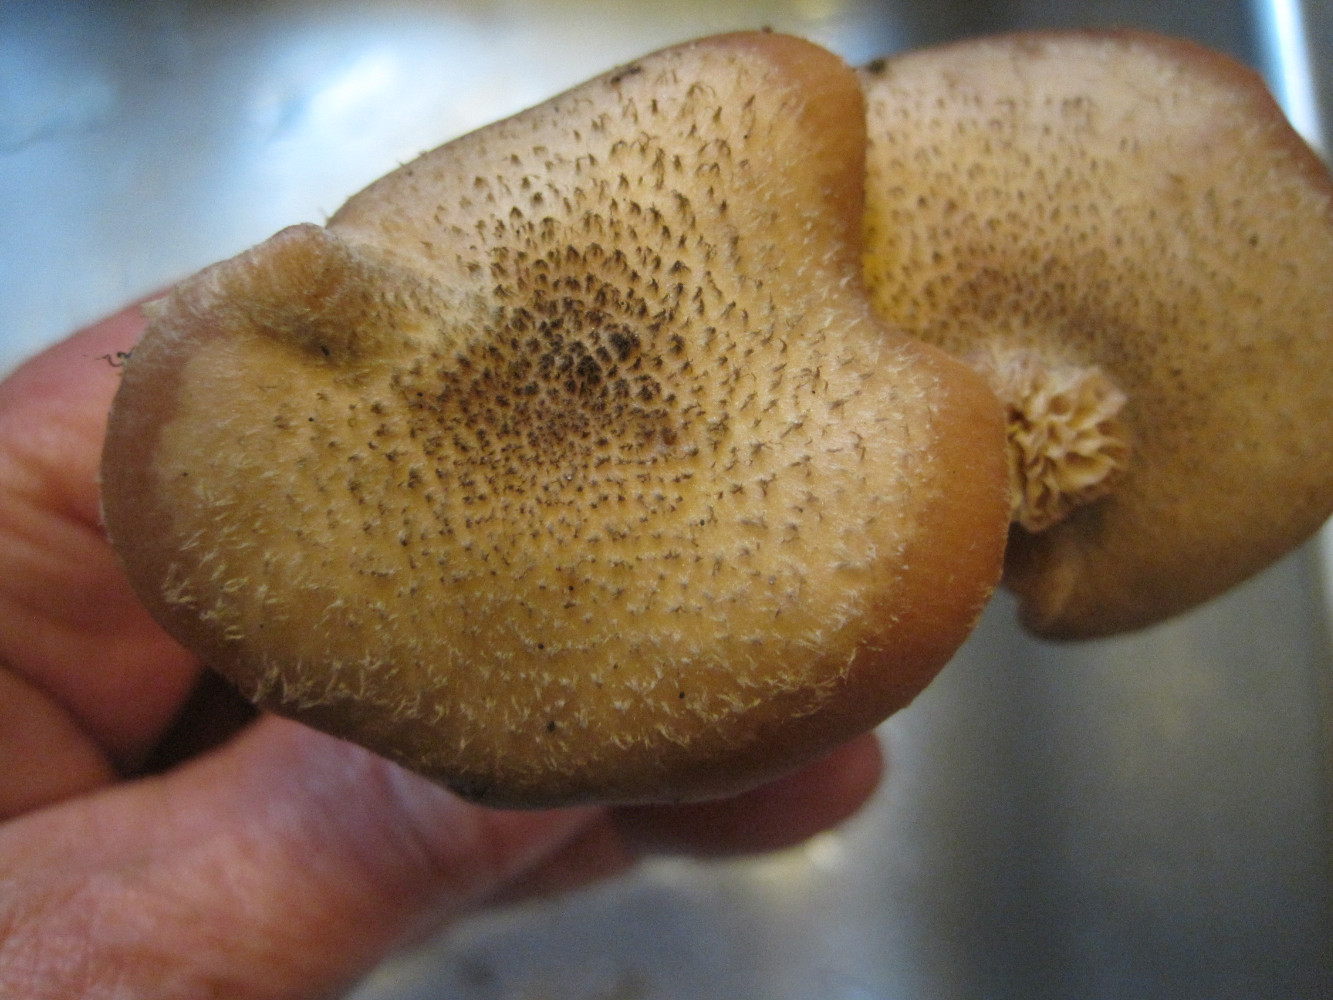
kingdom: Fungi
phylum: Basidiomycota
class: Agaricomycetes
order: Agaricales
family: Physalacriaceae
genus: Armillaria
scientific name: Armillaria ostoyae
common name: mørk honningsvamp
